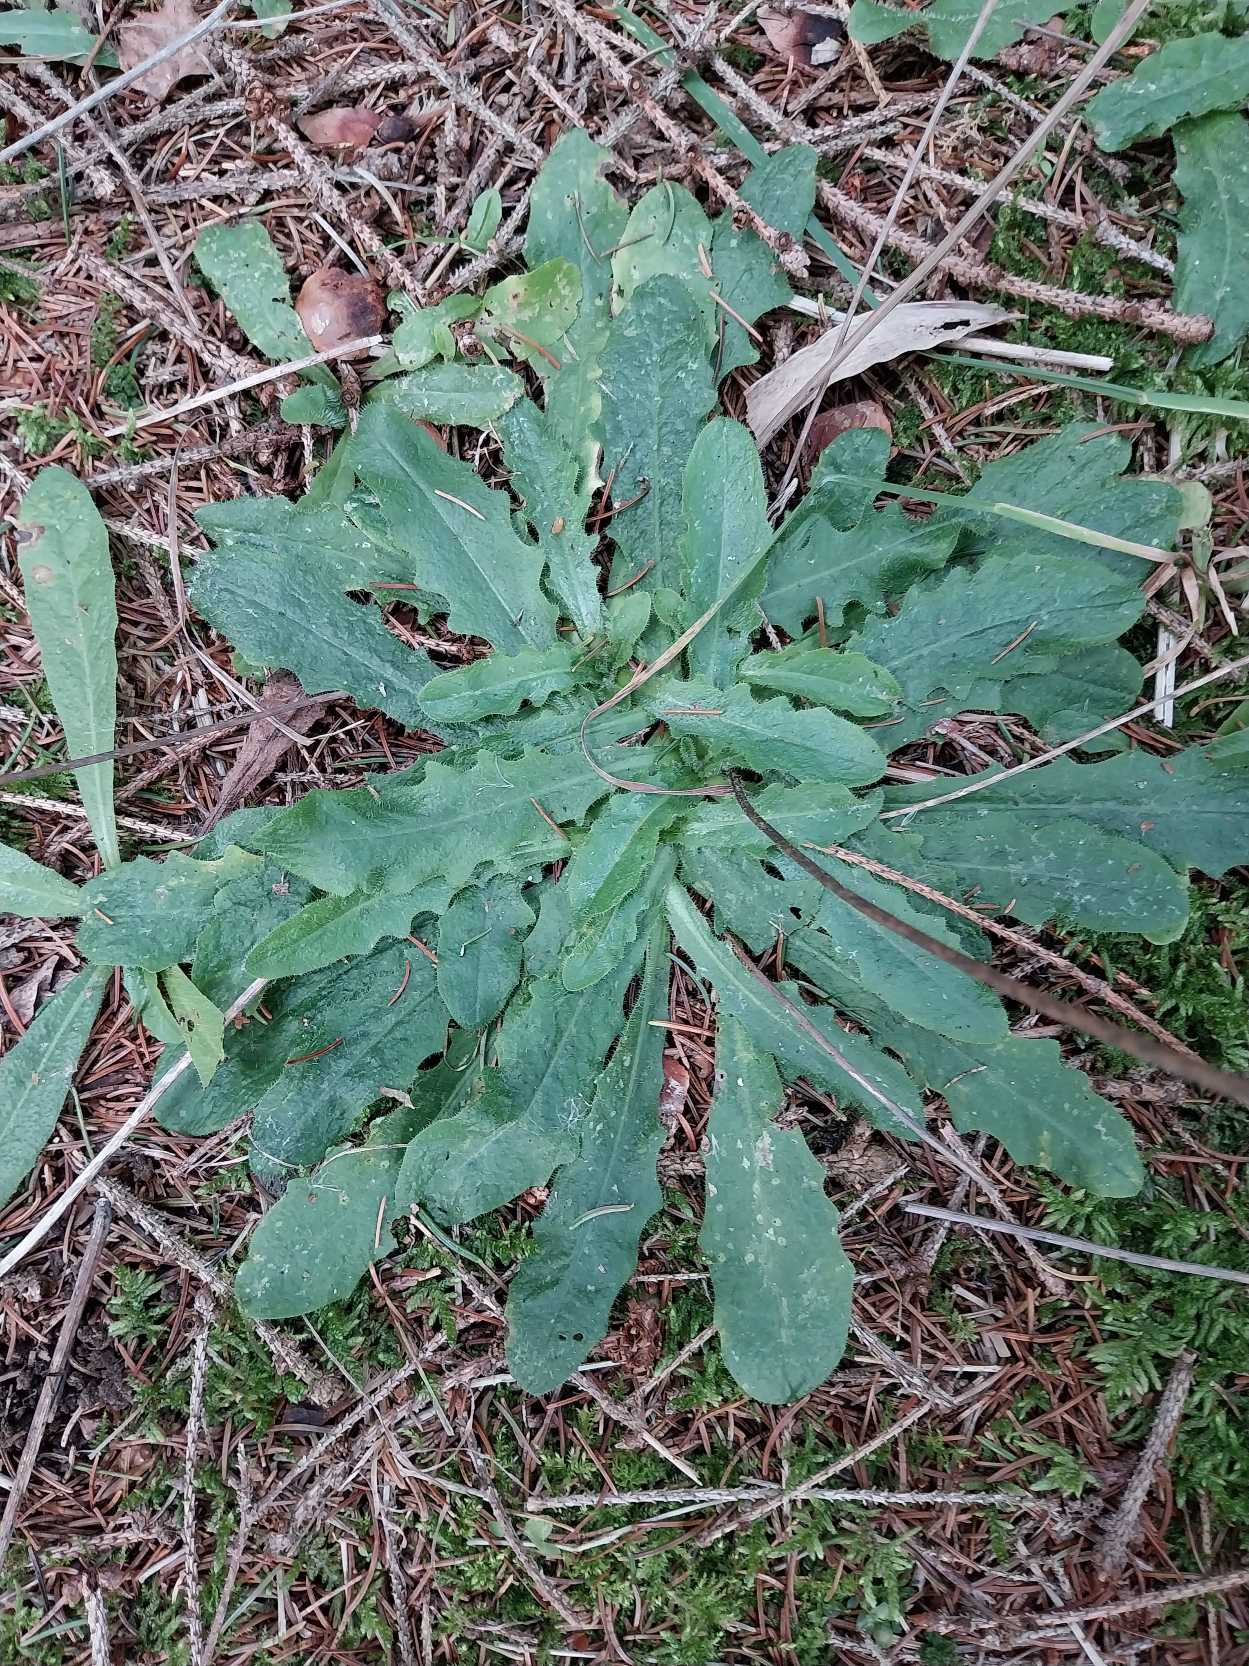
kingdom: Plantae
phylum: Tracheophyta
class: Magnoliopsida
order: Asterales
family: Asteraceae
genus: Hypochaeris
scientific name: Hypochaeris radicata
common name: Almindelig kongepen
